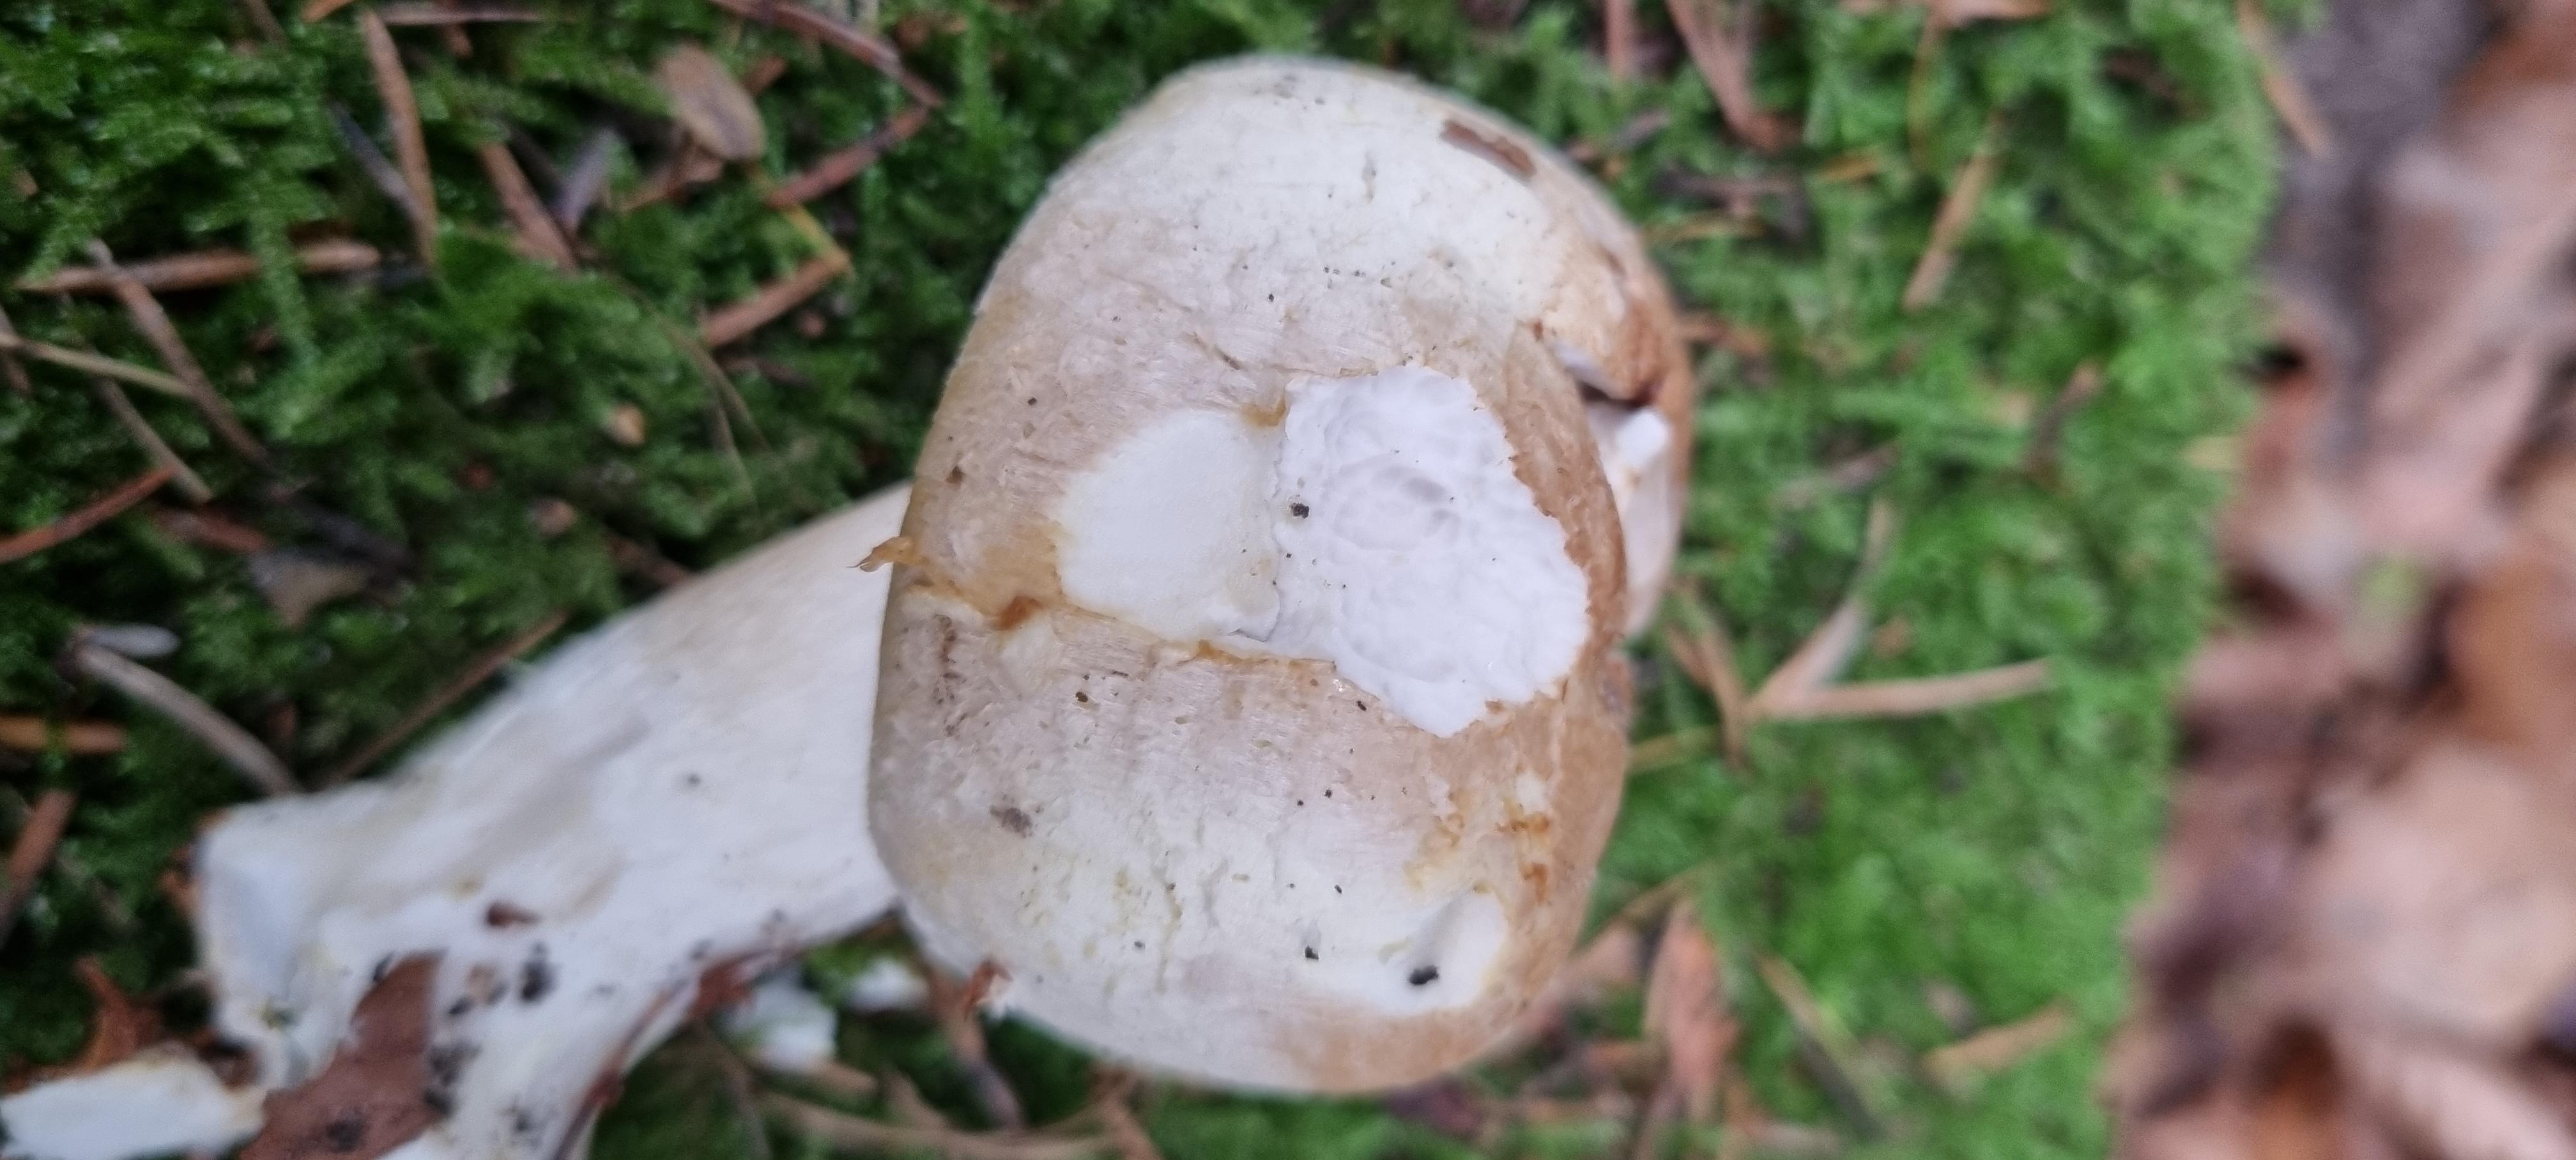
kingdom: Fungi
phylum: Basidiomycota
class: Agaricomycetes
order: Agaricales
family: Agaricaceae
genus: Agaricus
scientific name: Agaricus sylvicola
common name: skiveknoldet champignon
